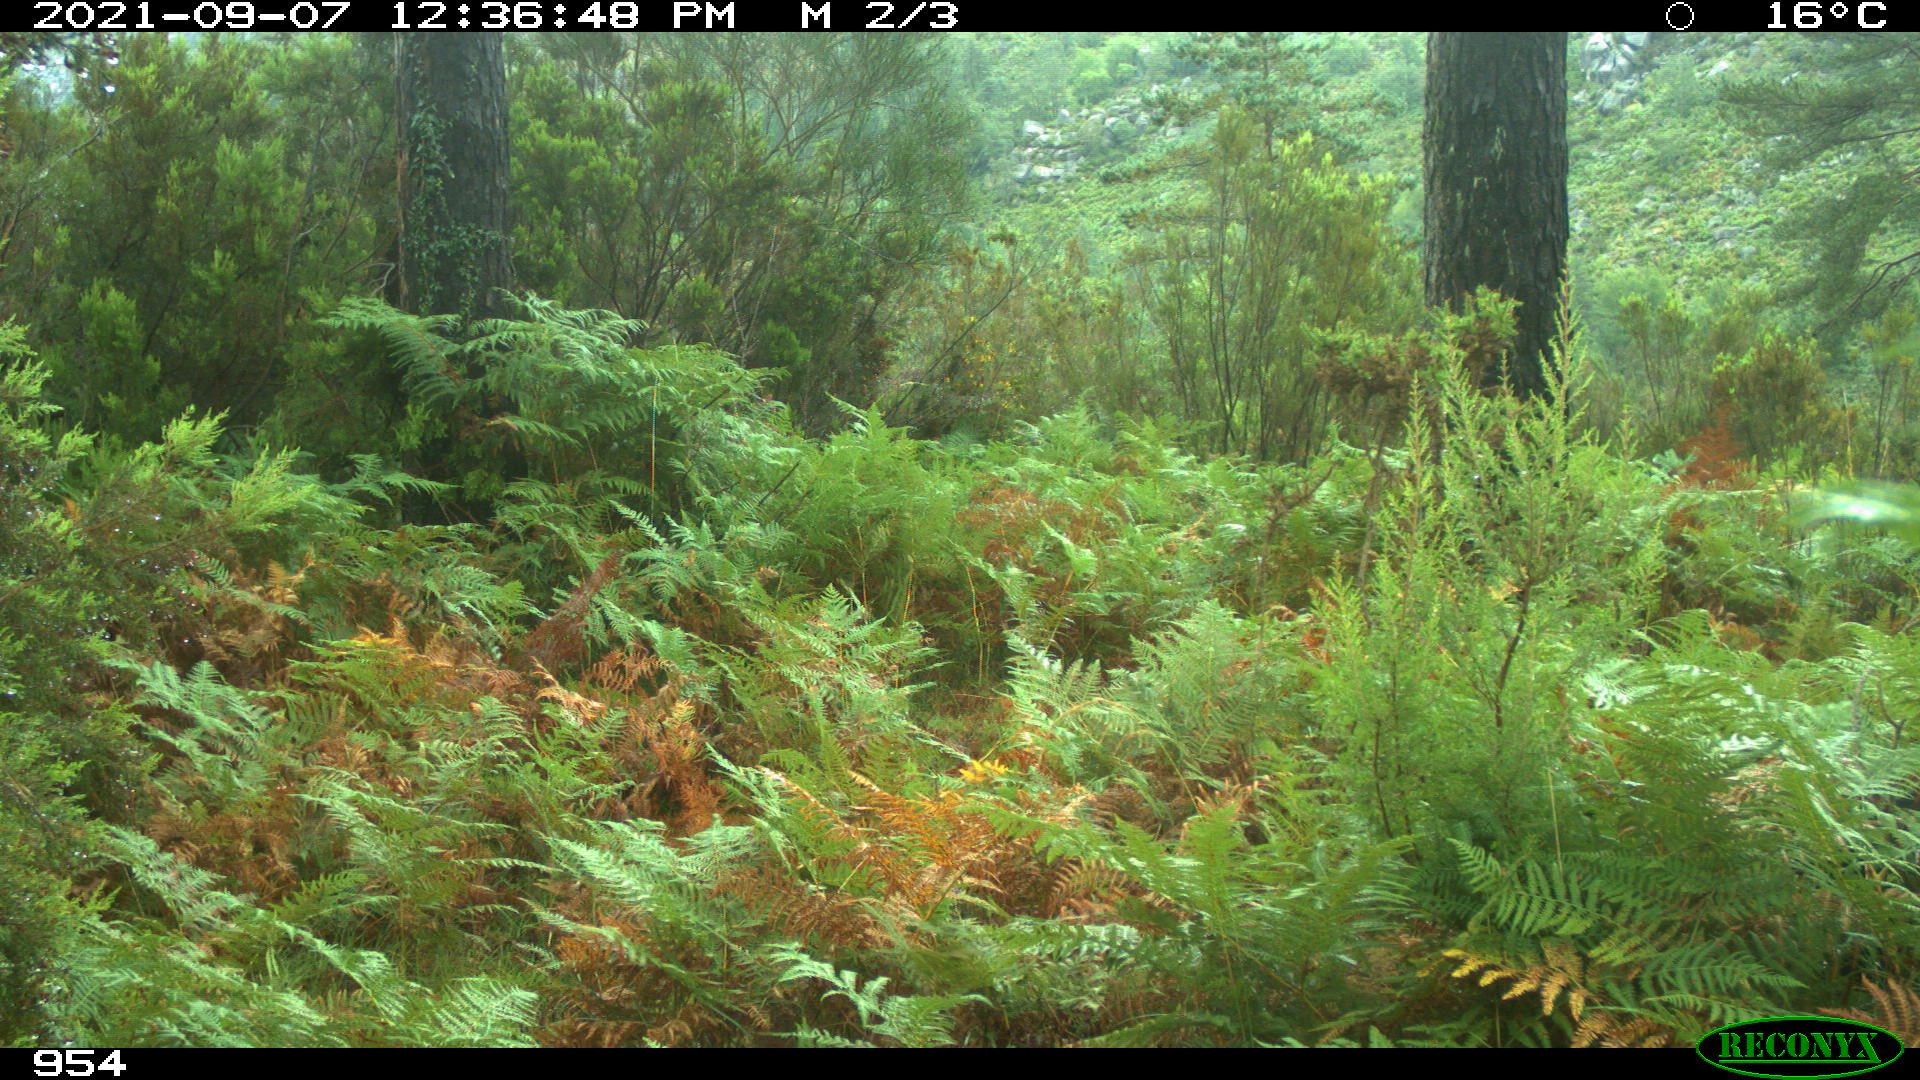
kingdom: Animalia
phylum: Chordata
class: Mammalia
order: Carnivora
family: Canidae
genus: Canis
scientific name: Canis lupus
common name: Gray wolf
